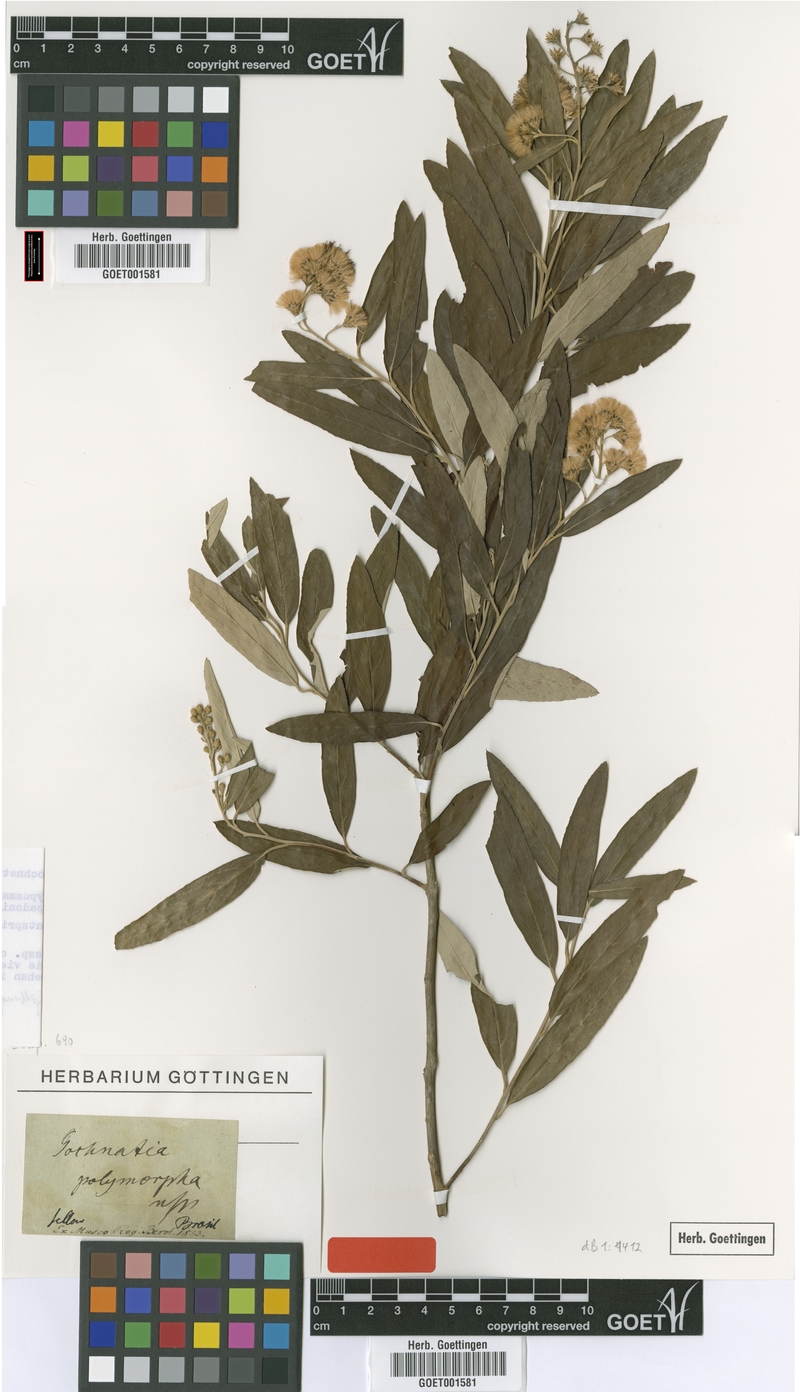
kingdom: Plantae
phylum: Tracheophyta
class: Magnoliopsida
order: Asterales
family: Asteraceae
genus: Moquiniastrum
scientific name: Moquiniastrum polymorphum
